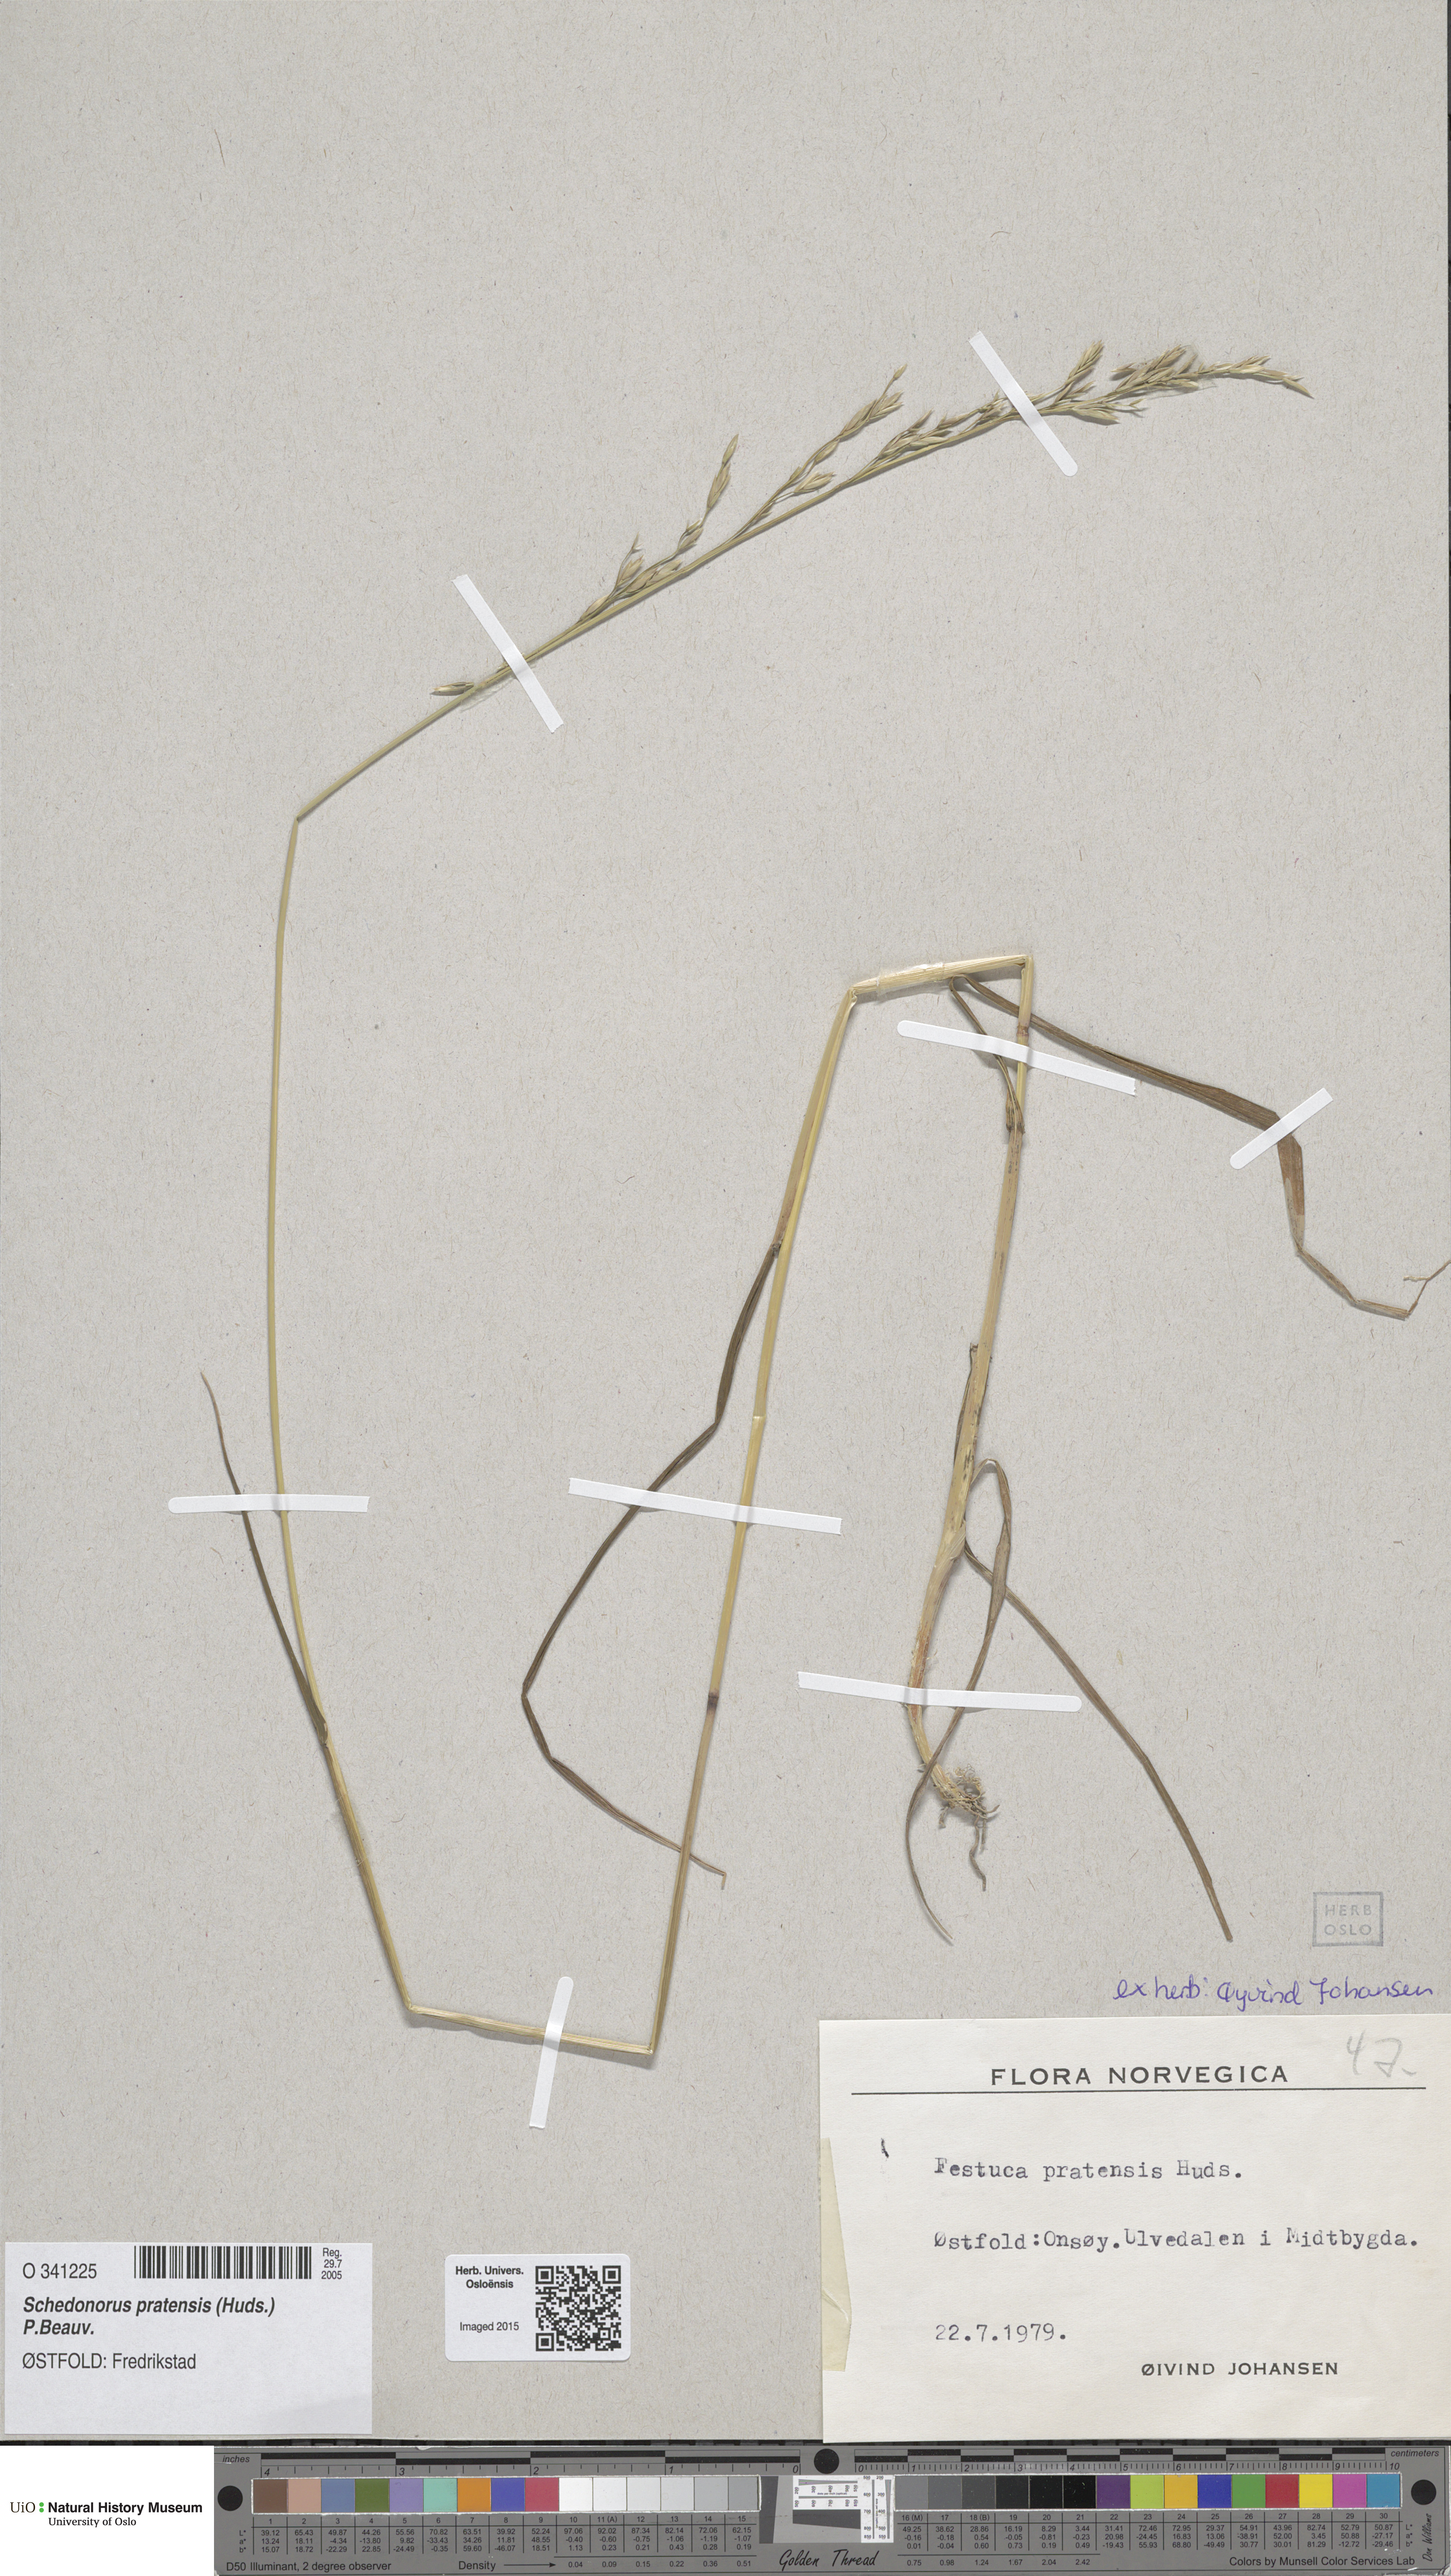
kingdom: Plantae
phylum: Tracheophyta
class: Liliopsida
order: Poales
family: Poaceae
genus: Lolium
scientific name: Lolium pratense
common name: Dover grass
